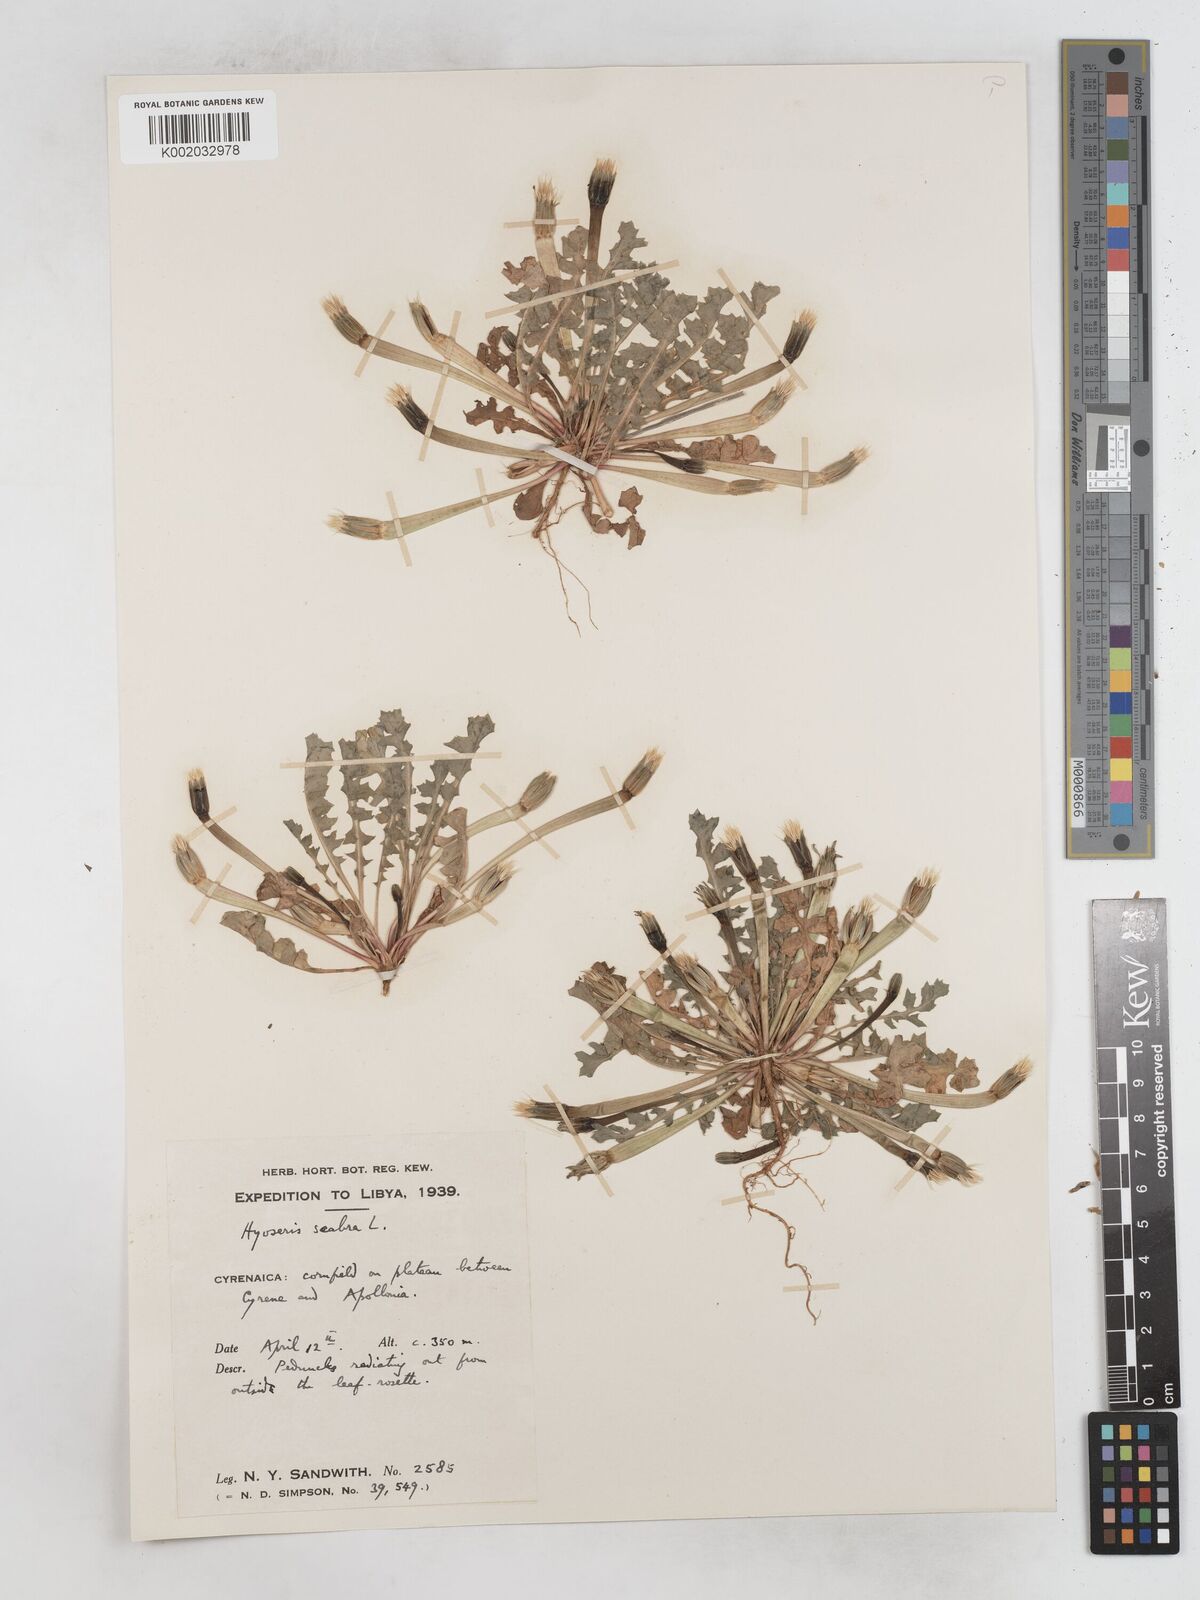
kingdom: Plantae
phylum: Tracheophyta
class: Magnoliopsida
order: Asterales
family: Asteraceae
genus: Hyoseris
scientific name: Hyoseris scabra
